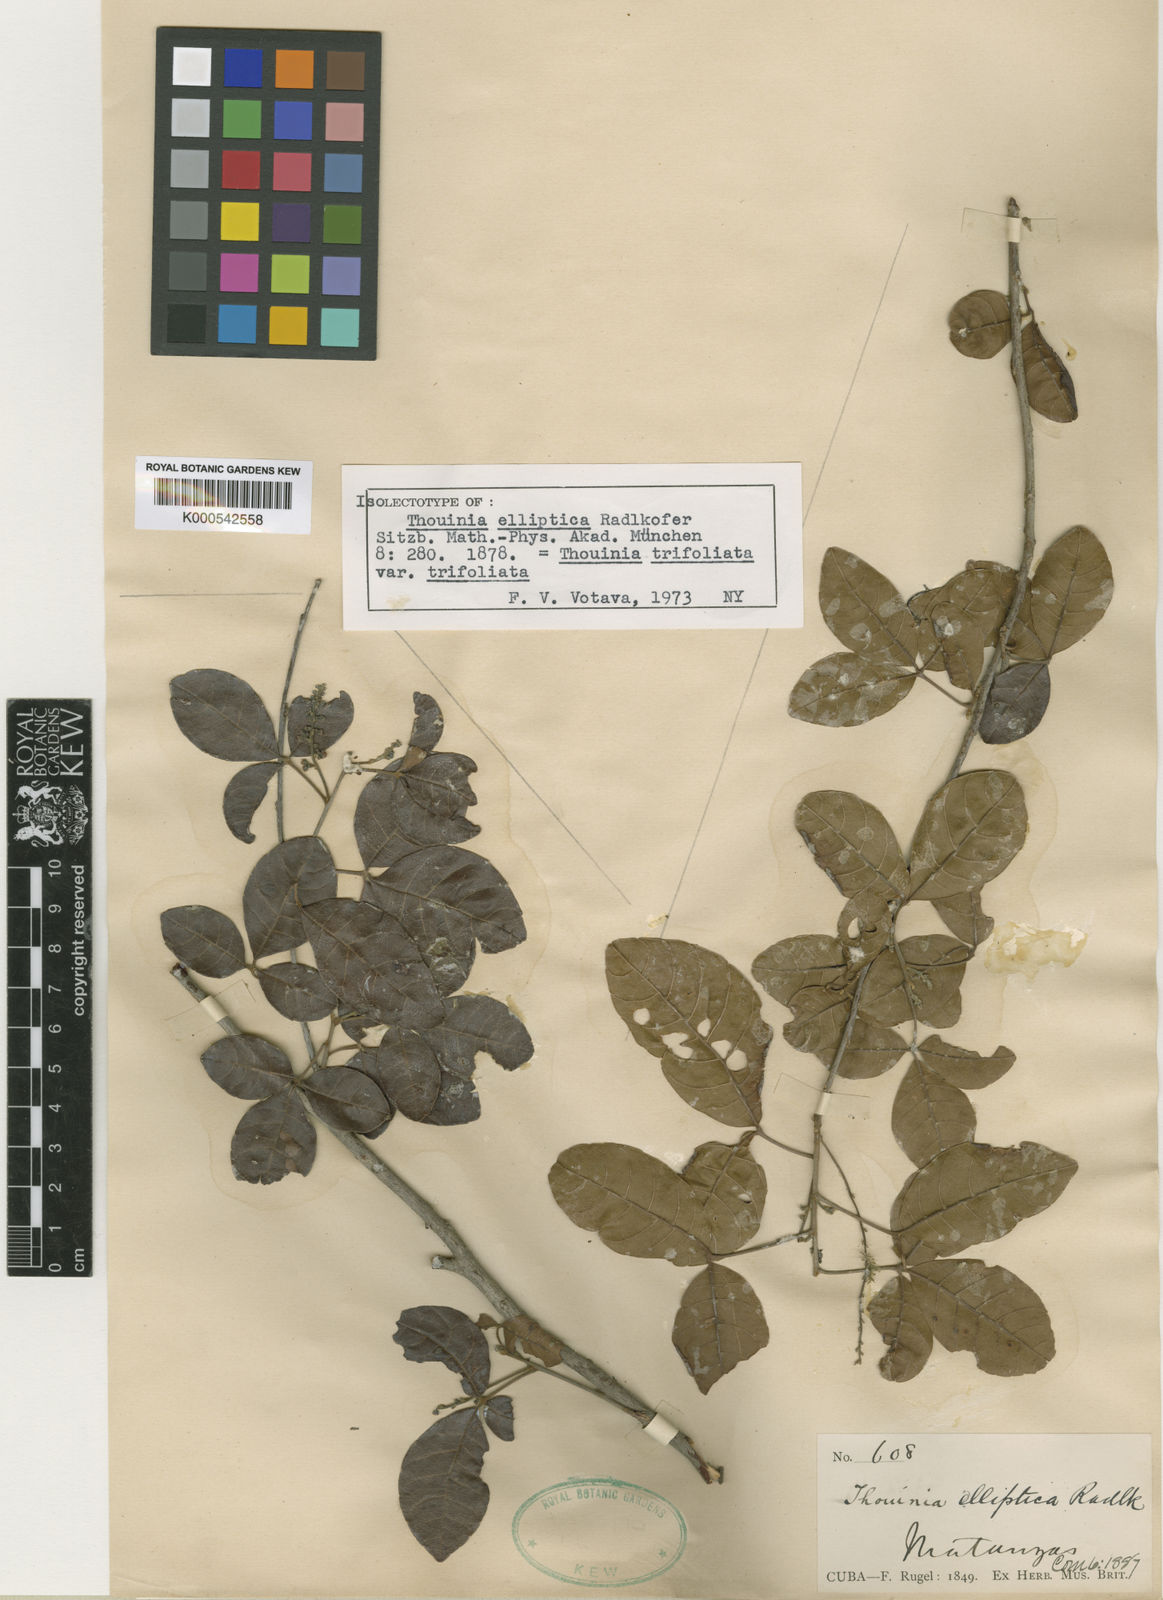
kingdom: Plantae
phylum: Tracheophyta
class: Magnoliopsida
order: Sapindales
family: Sapindaceae
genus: Thouinia
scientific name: Thouinia trifoliata
